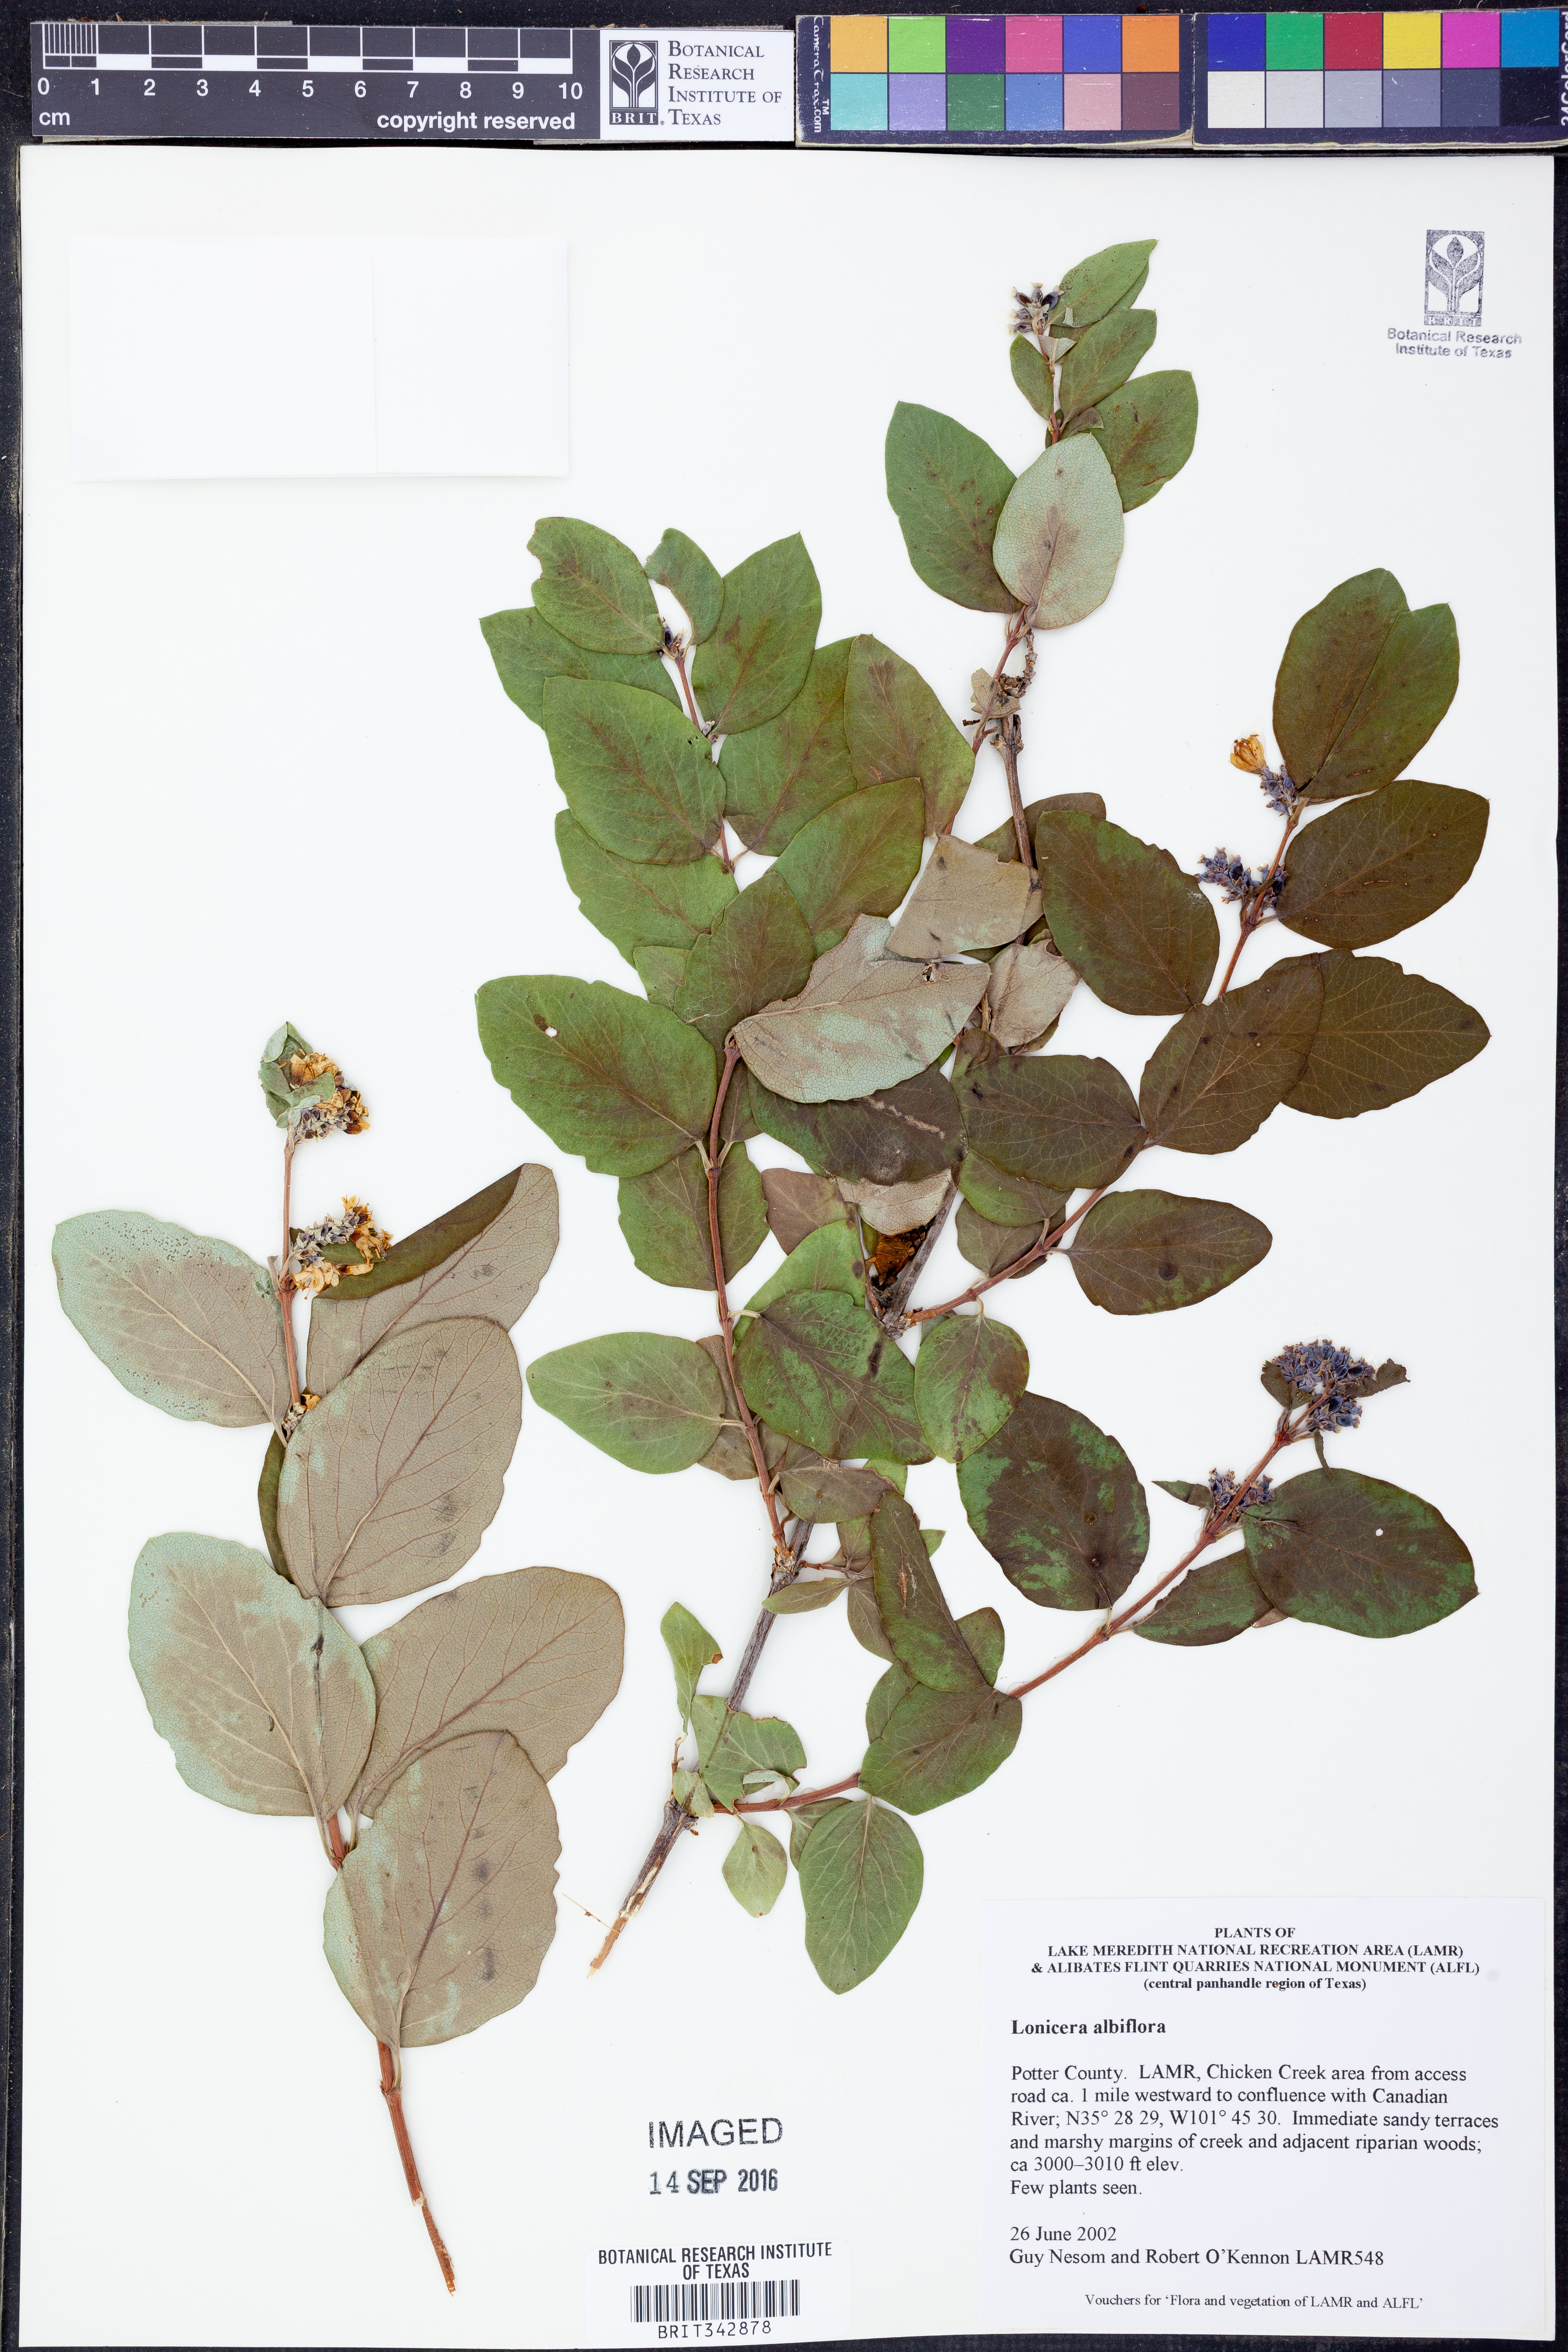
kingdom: Plantae
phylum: Tracheophyta
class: Magnoliopsida
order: Dipsacales
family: Caprifoliaceae
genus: Lonicera
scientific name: Lonicera albiflora
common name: White honeysuckle
